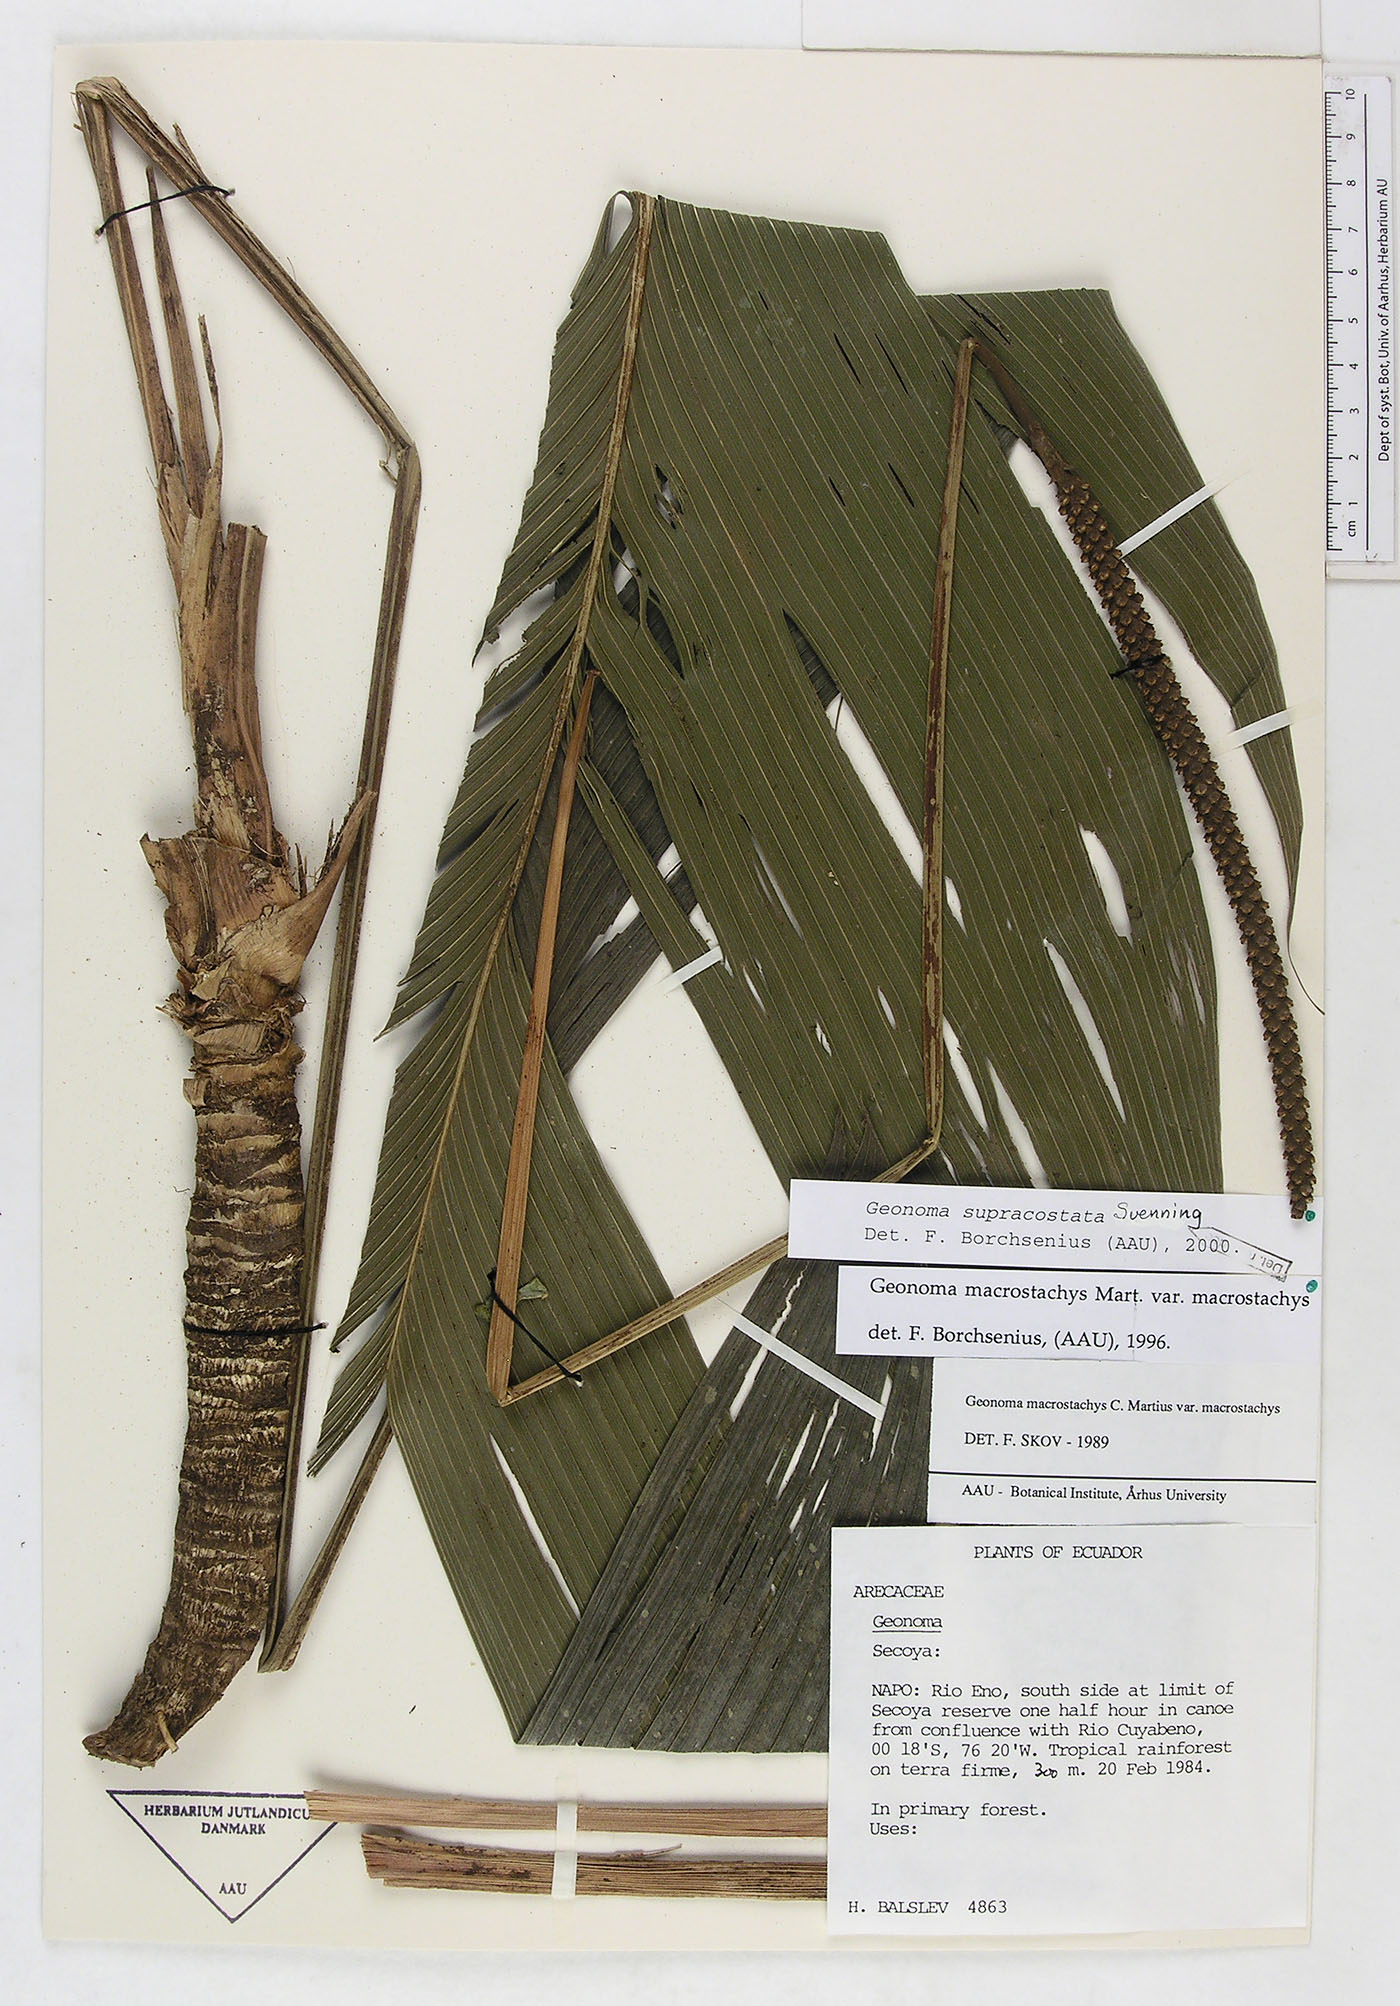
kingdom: Plantae
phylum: Tracheophyta
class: Liliopsida
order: Arecales
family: Arecaceae
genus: Geonoma
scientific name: Geonoma macrostachys
